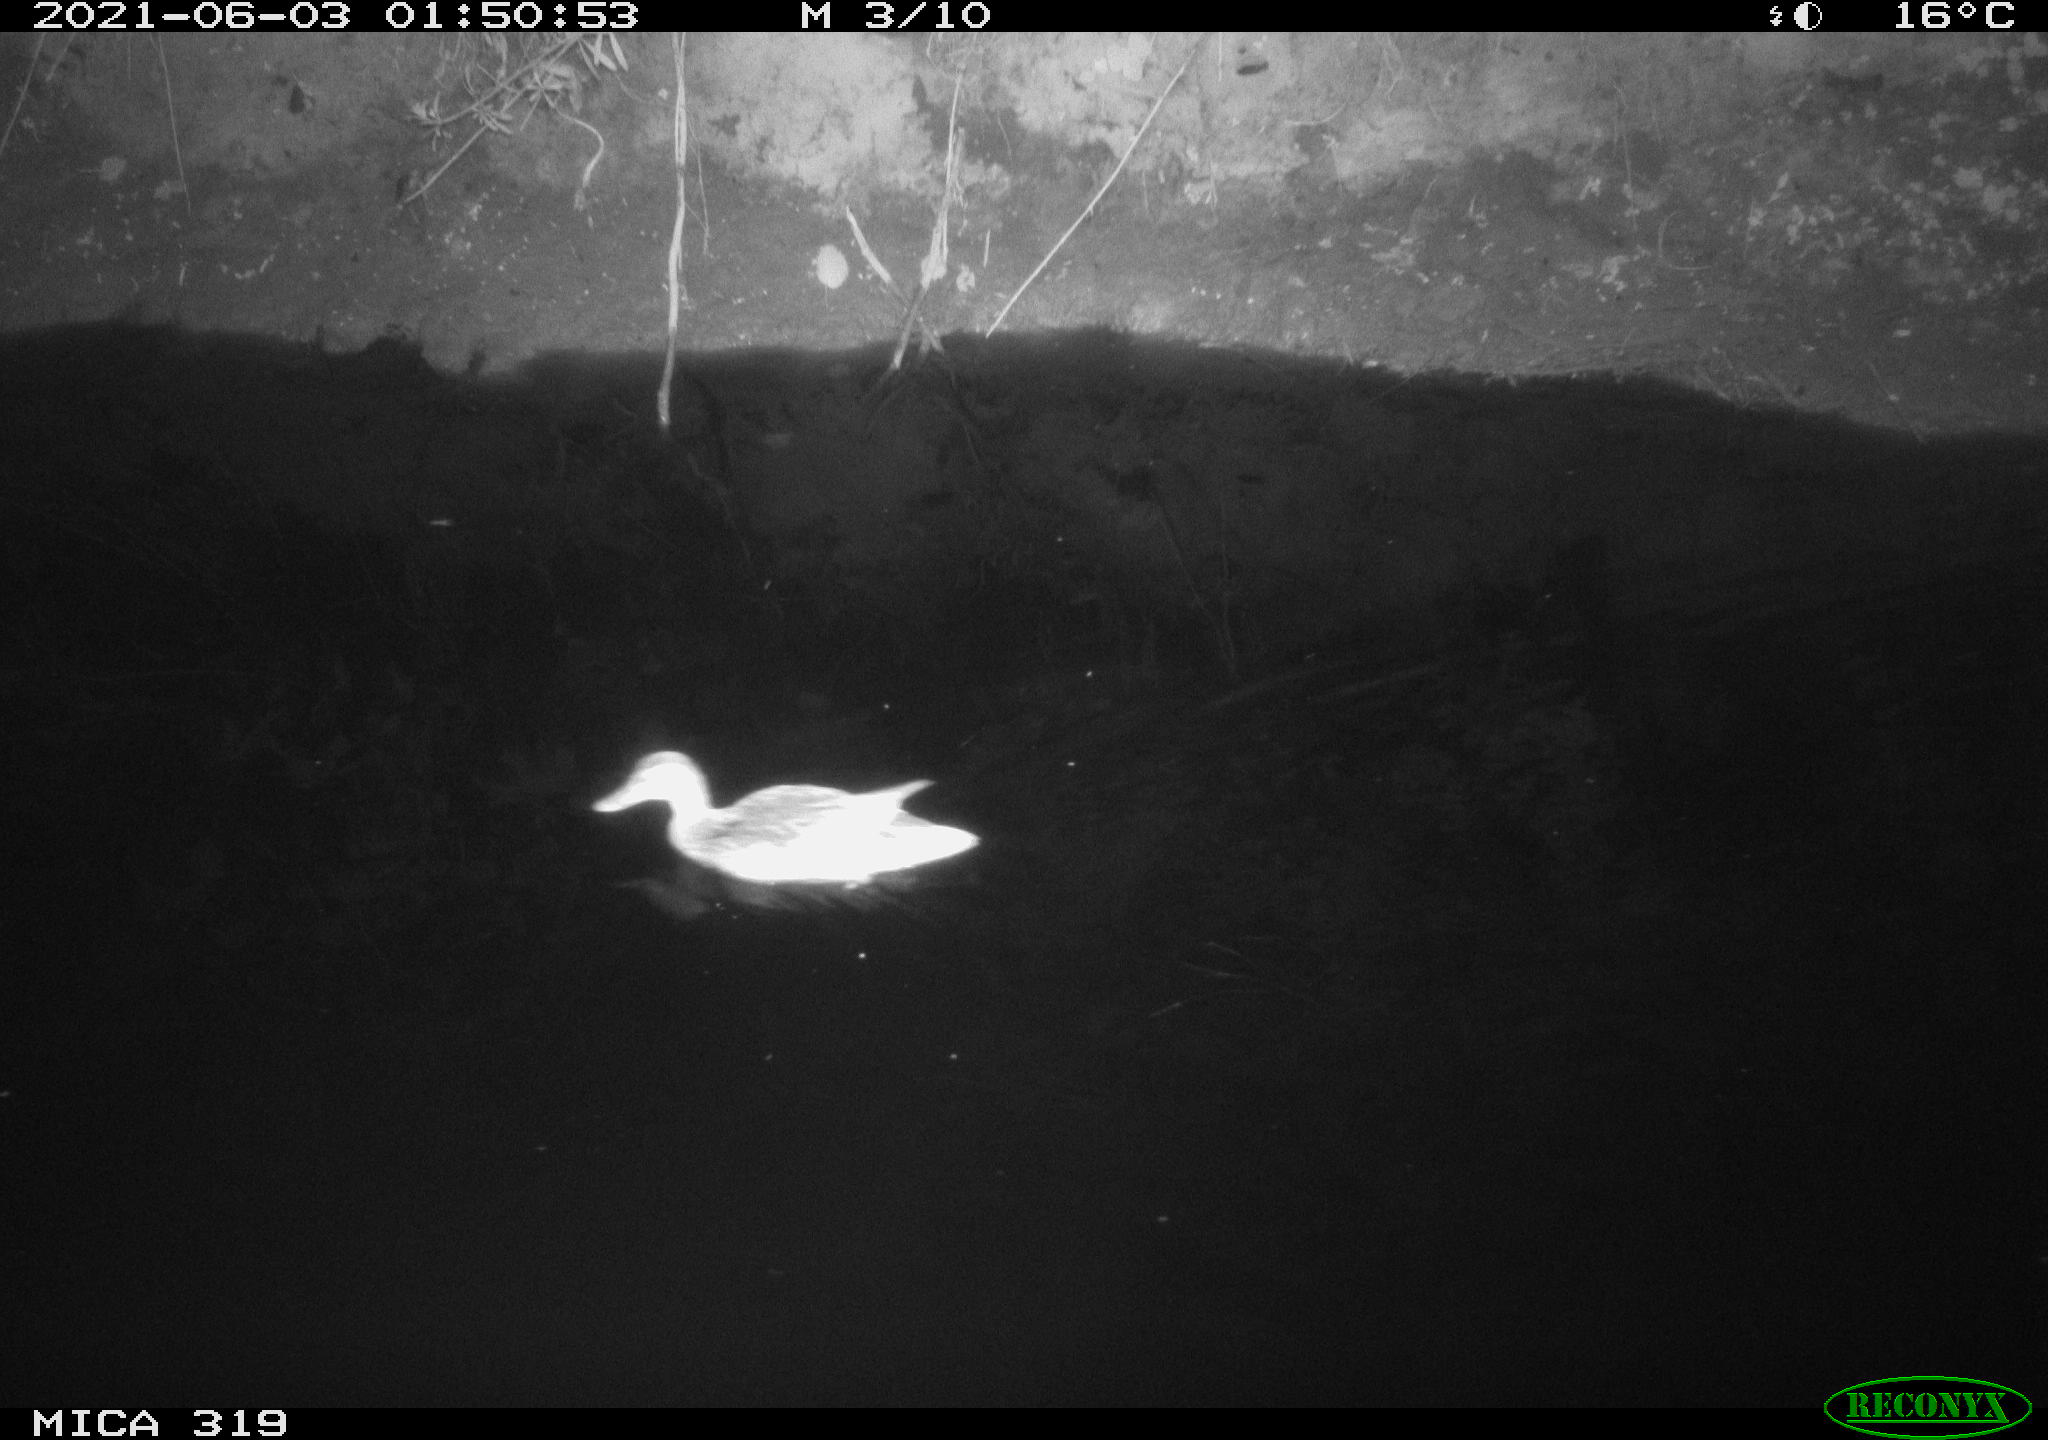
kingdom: Animalia
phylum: Chordata
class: Aves
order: Anseriformes
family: Anatidae
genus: Anas
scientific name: Anas platyrhynchos
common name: Mallard
